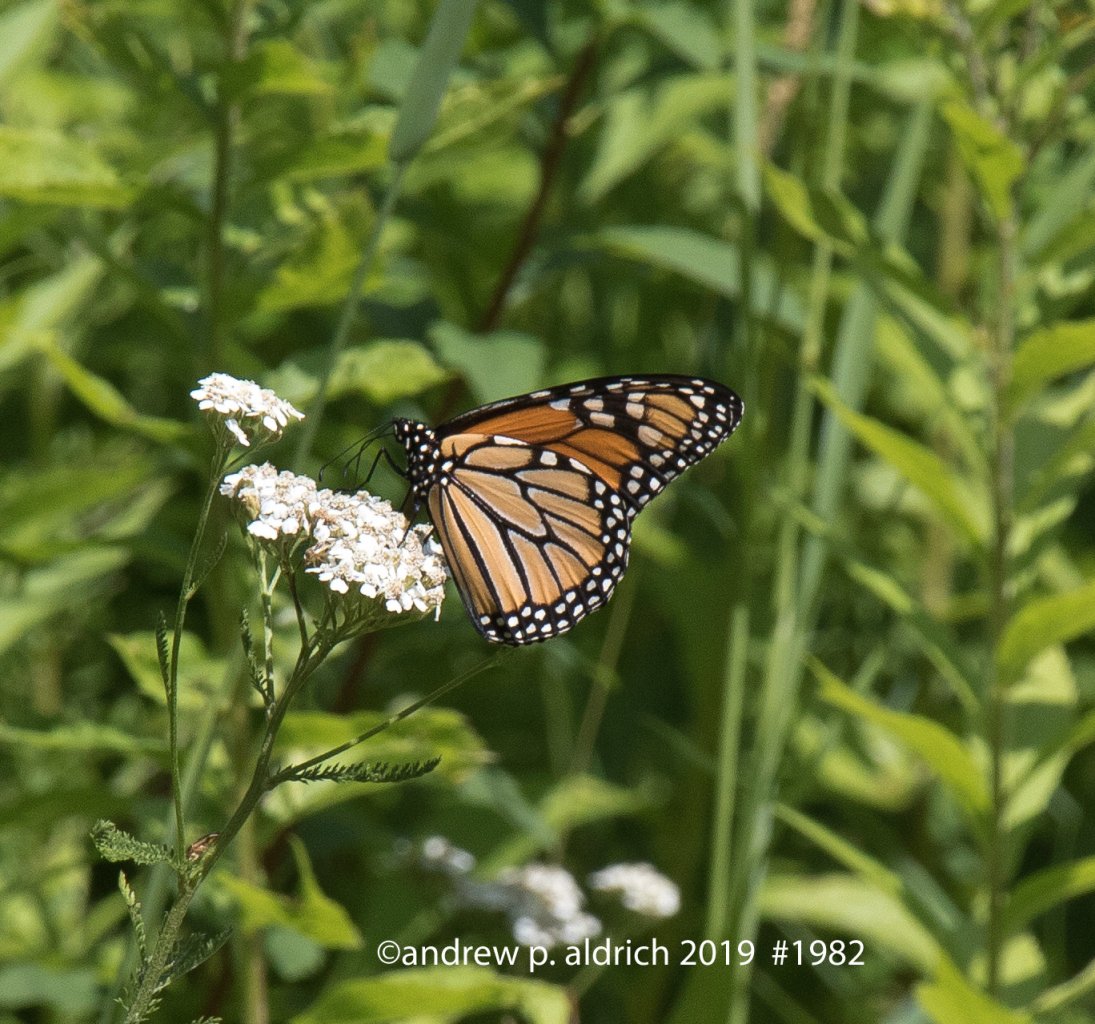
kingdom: Animalia
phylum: Arthropoda
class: Insecta
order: Lepidoptera
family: Nymphalidae
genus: Danaus
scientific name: Danaus plexippus
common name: Monarch
